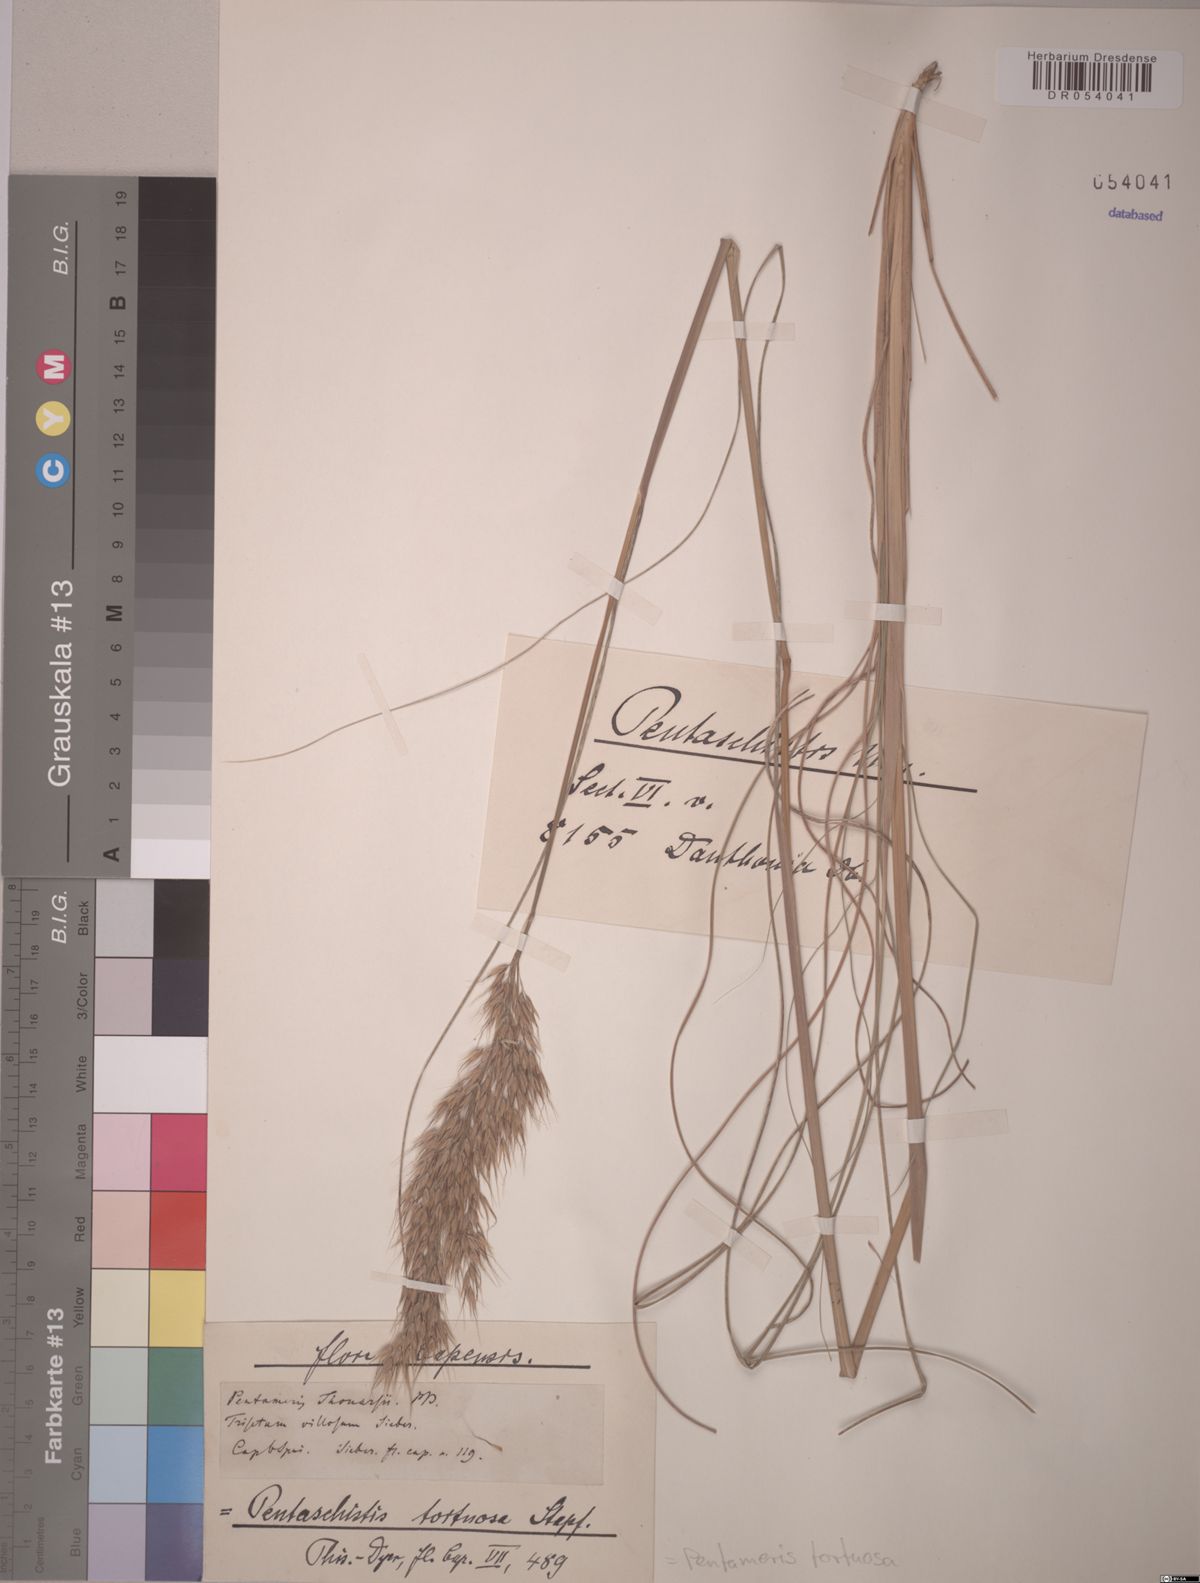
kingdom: Plantae
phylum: Tracheophyta
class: Liliopsida
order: Poales
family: Poaceae
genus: Pentameris
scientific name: Pentameris tortuosa
